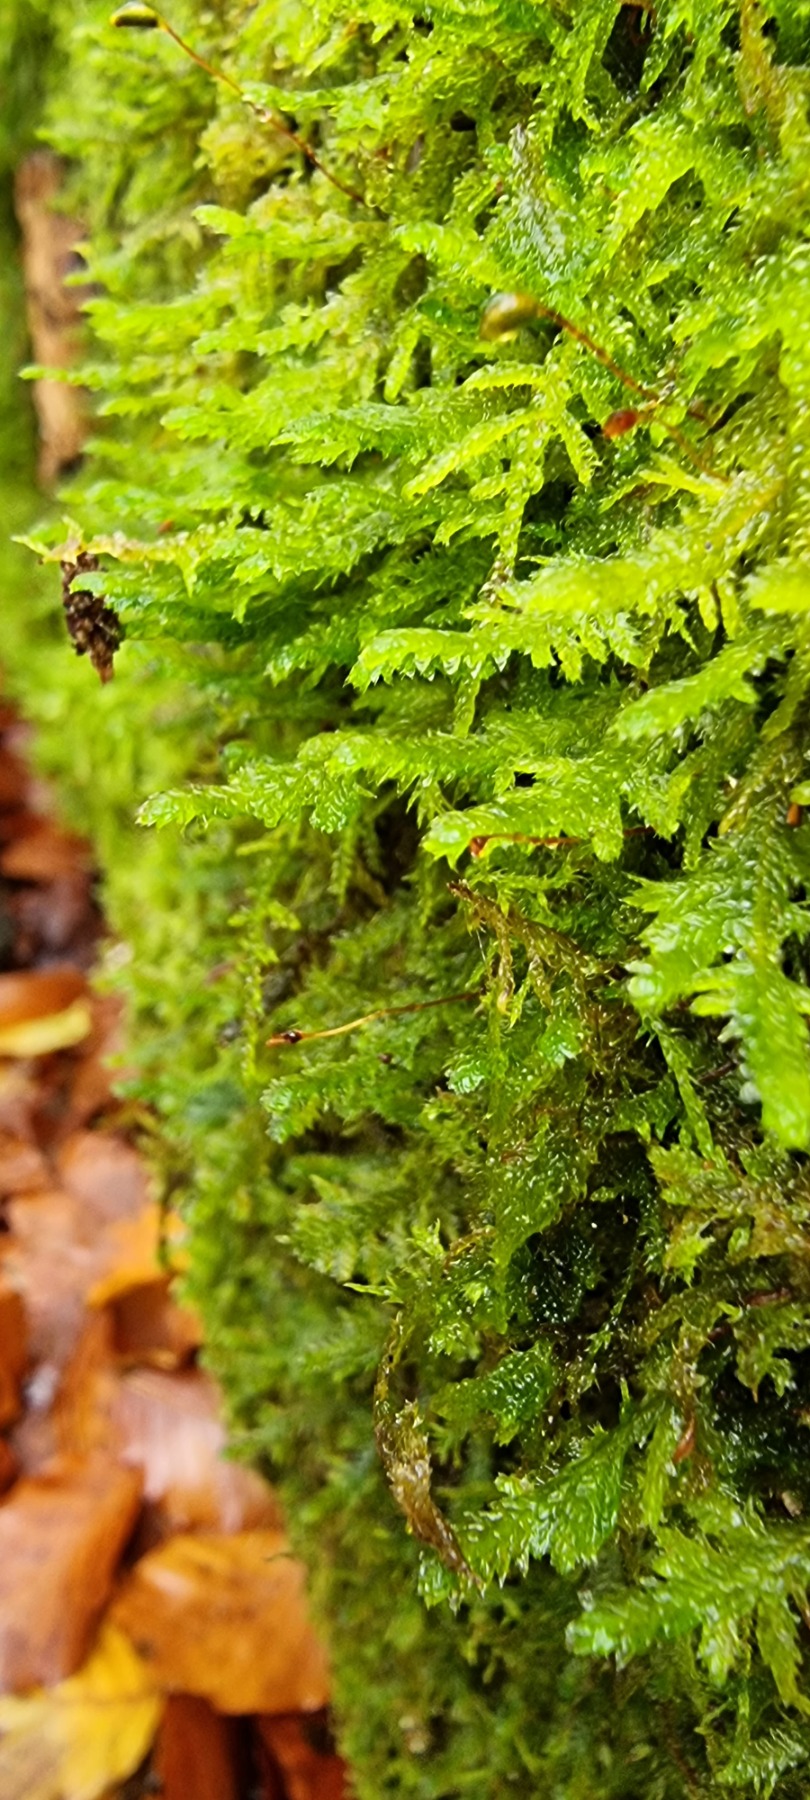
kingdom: Plantae
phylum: Bryophyta
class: Bryopsida
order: Hypnales
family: Neckeraceae
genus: Alleniella
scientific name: Alleniella complanata
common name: Almindelig fladmos
